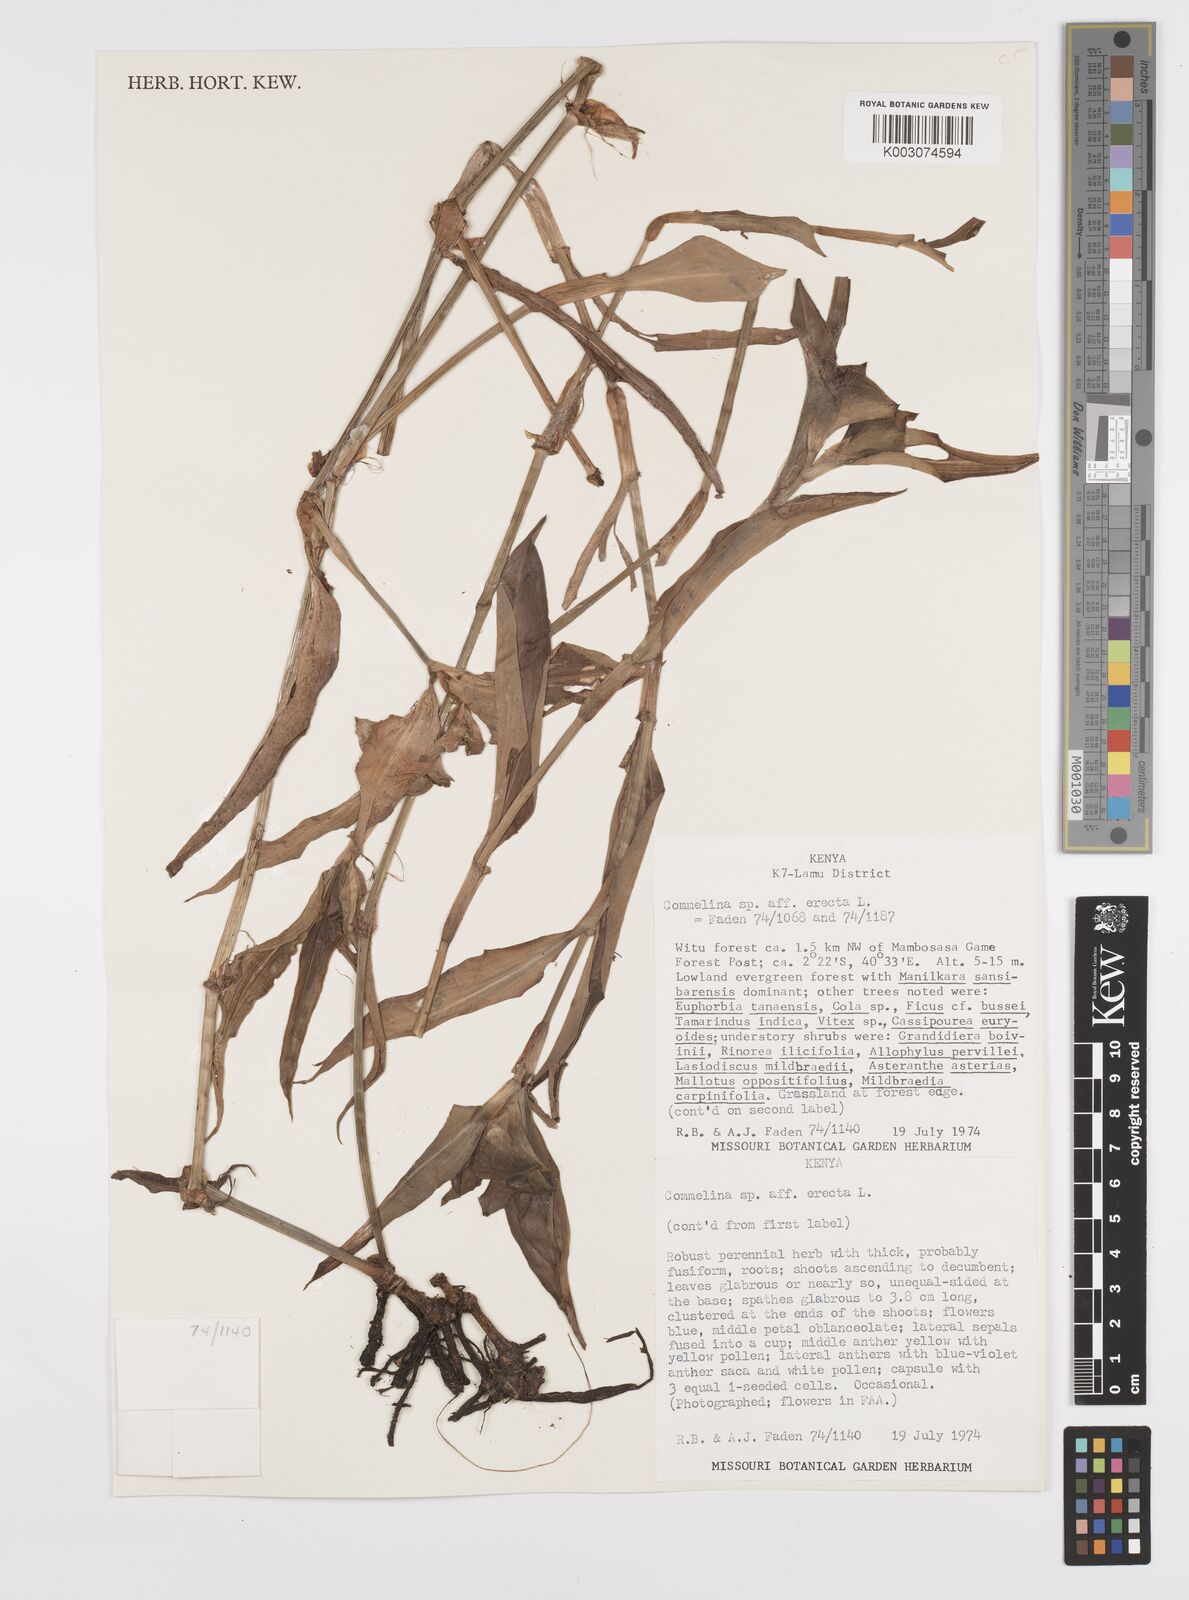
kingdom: Plantae
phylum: Tracheophyta
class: Liliopsida
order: Commelinales
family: Commelinaceae
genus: Commelina
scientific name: Commelina erecta
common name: Blousel blommetjie
